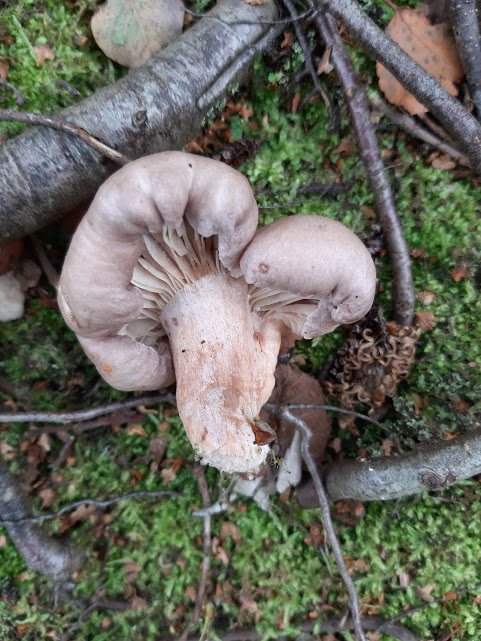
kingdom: Fungi
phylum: Basidiomycota
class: Agaricomycetes
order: Russulales
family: Russulaceae
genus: Lactarius
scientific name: Lactarius
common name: mælkehat
